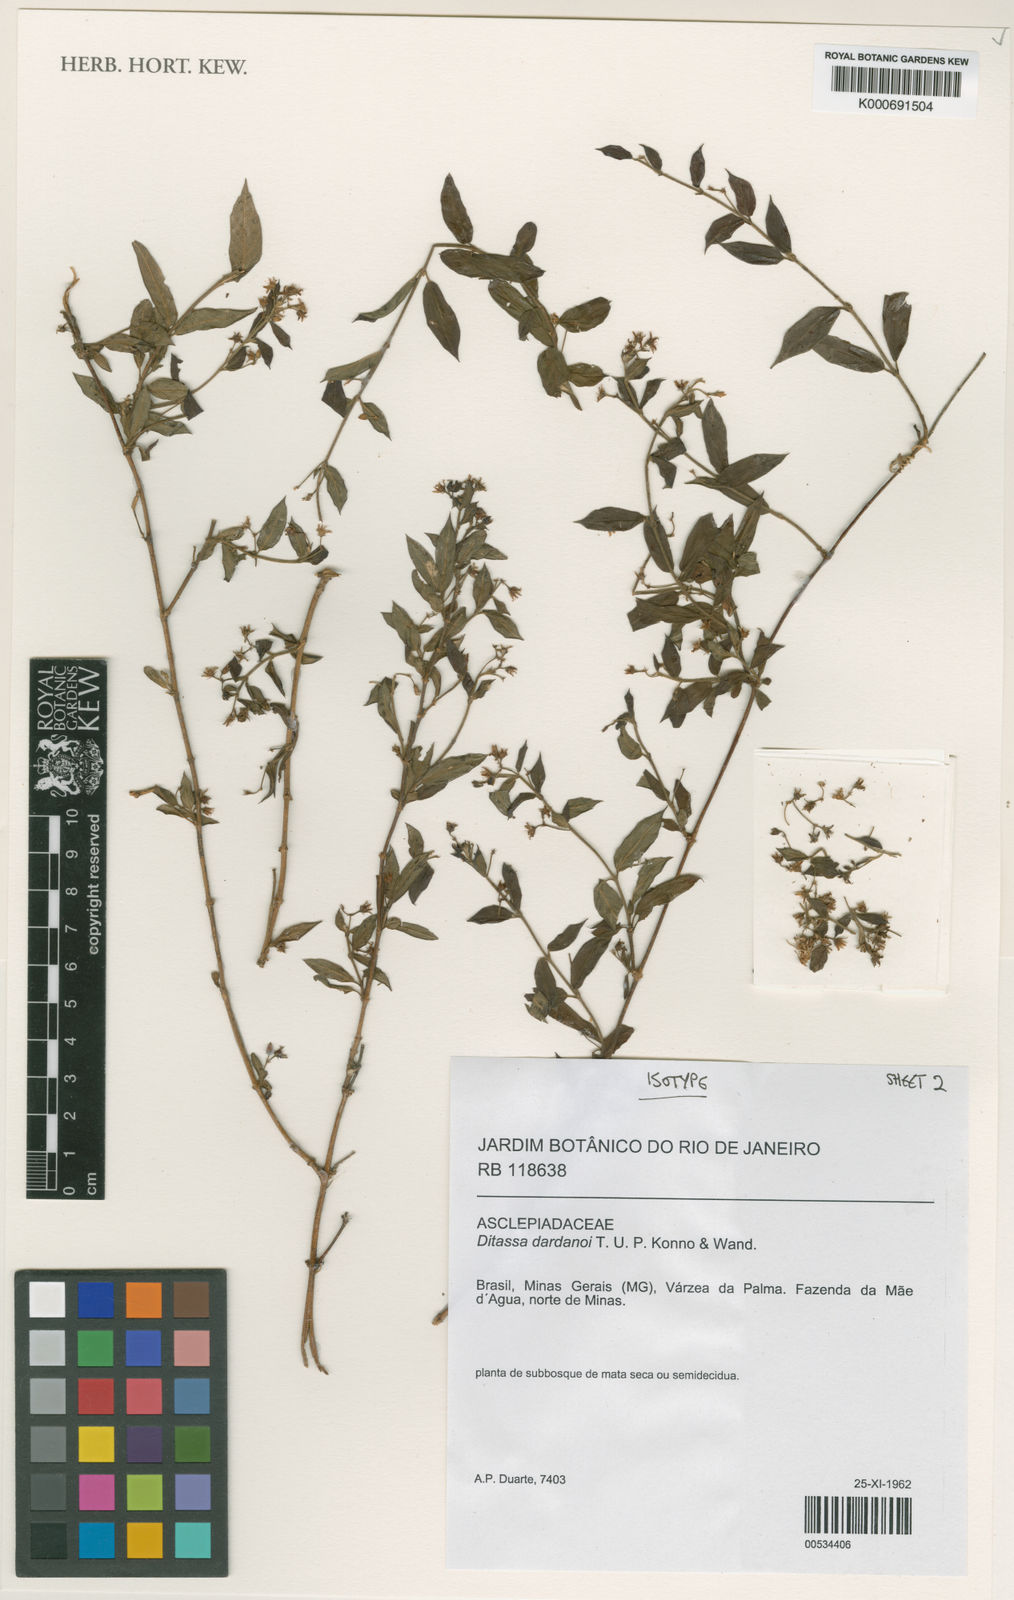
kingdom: Plantae
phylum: Tracheophyta
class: Magnoliopsida
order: Gentianales
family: Apocynaceae
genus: Ditassa
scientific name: Ditassa dardanoi
